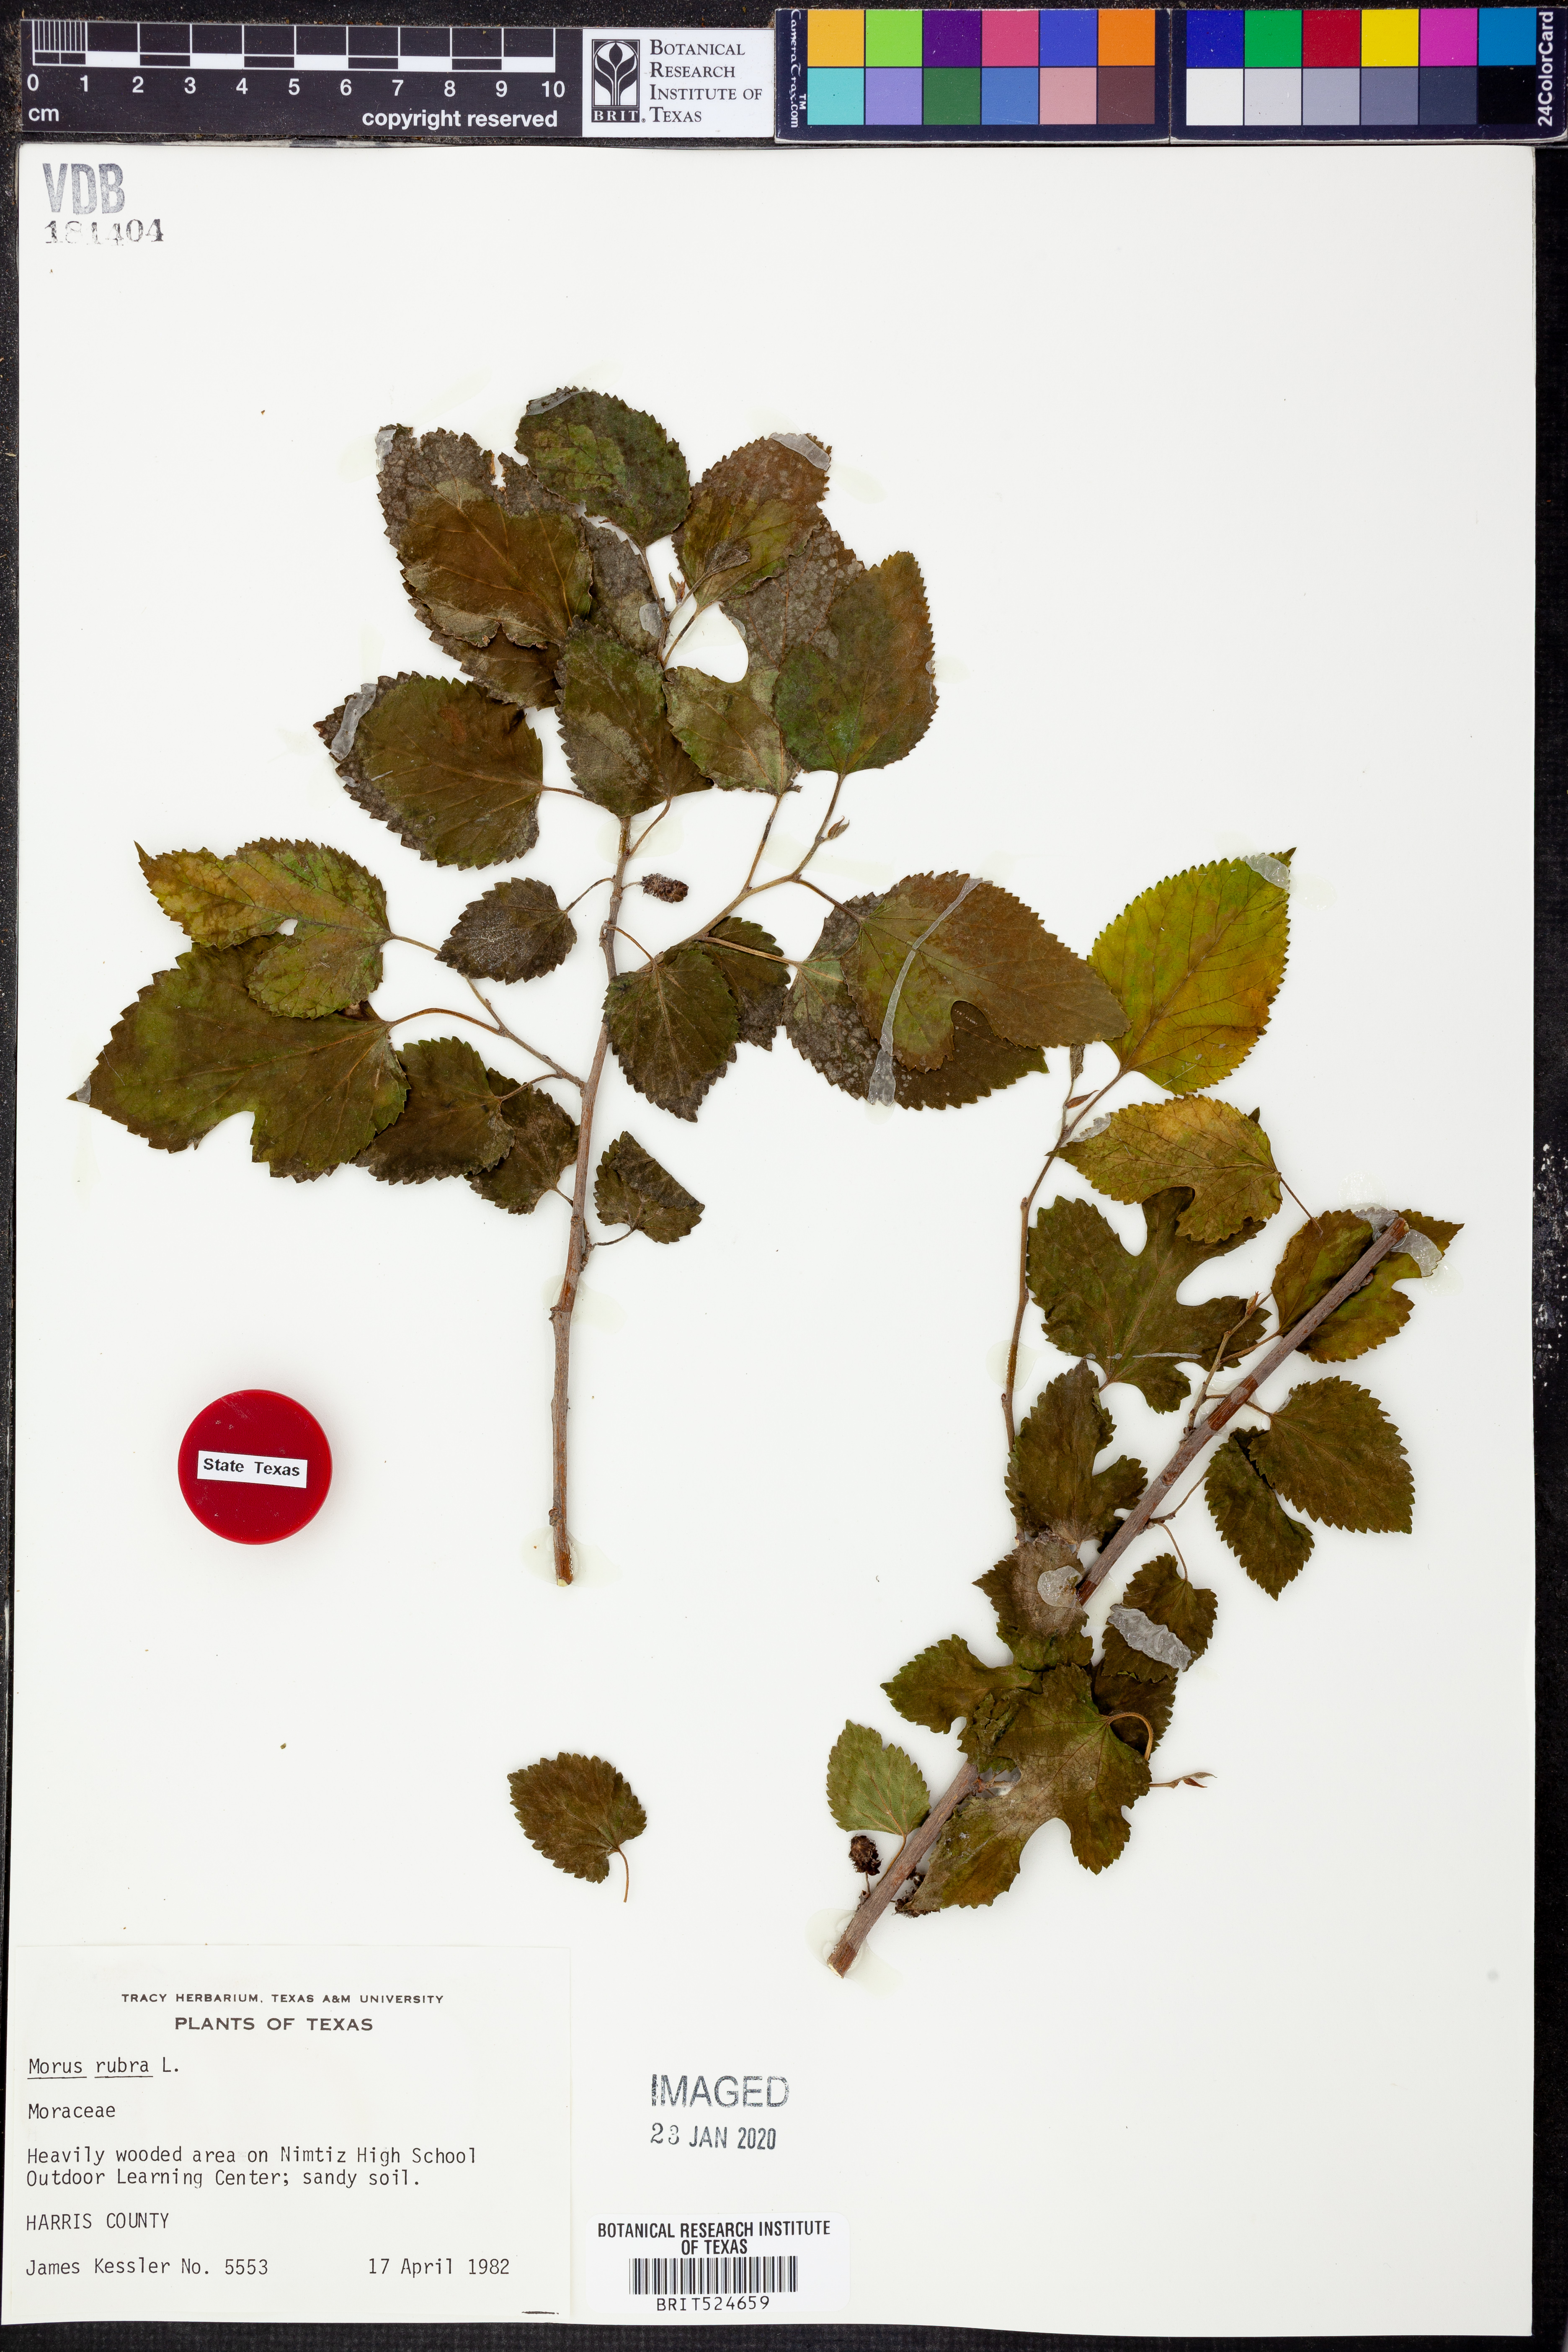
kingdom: Plantae
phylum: Tracheophyta
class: Magnoliopsida
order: Rosales
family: Moraceae
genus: Morus
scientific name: Morus rubra
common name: Red mulberry
